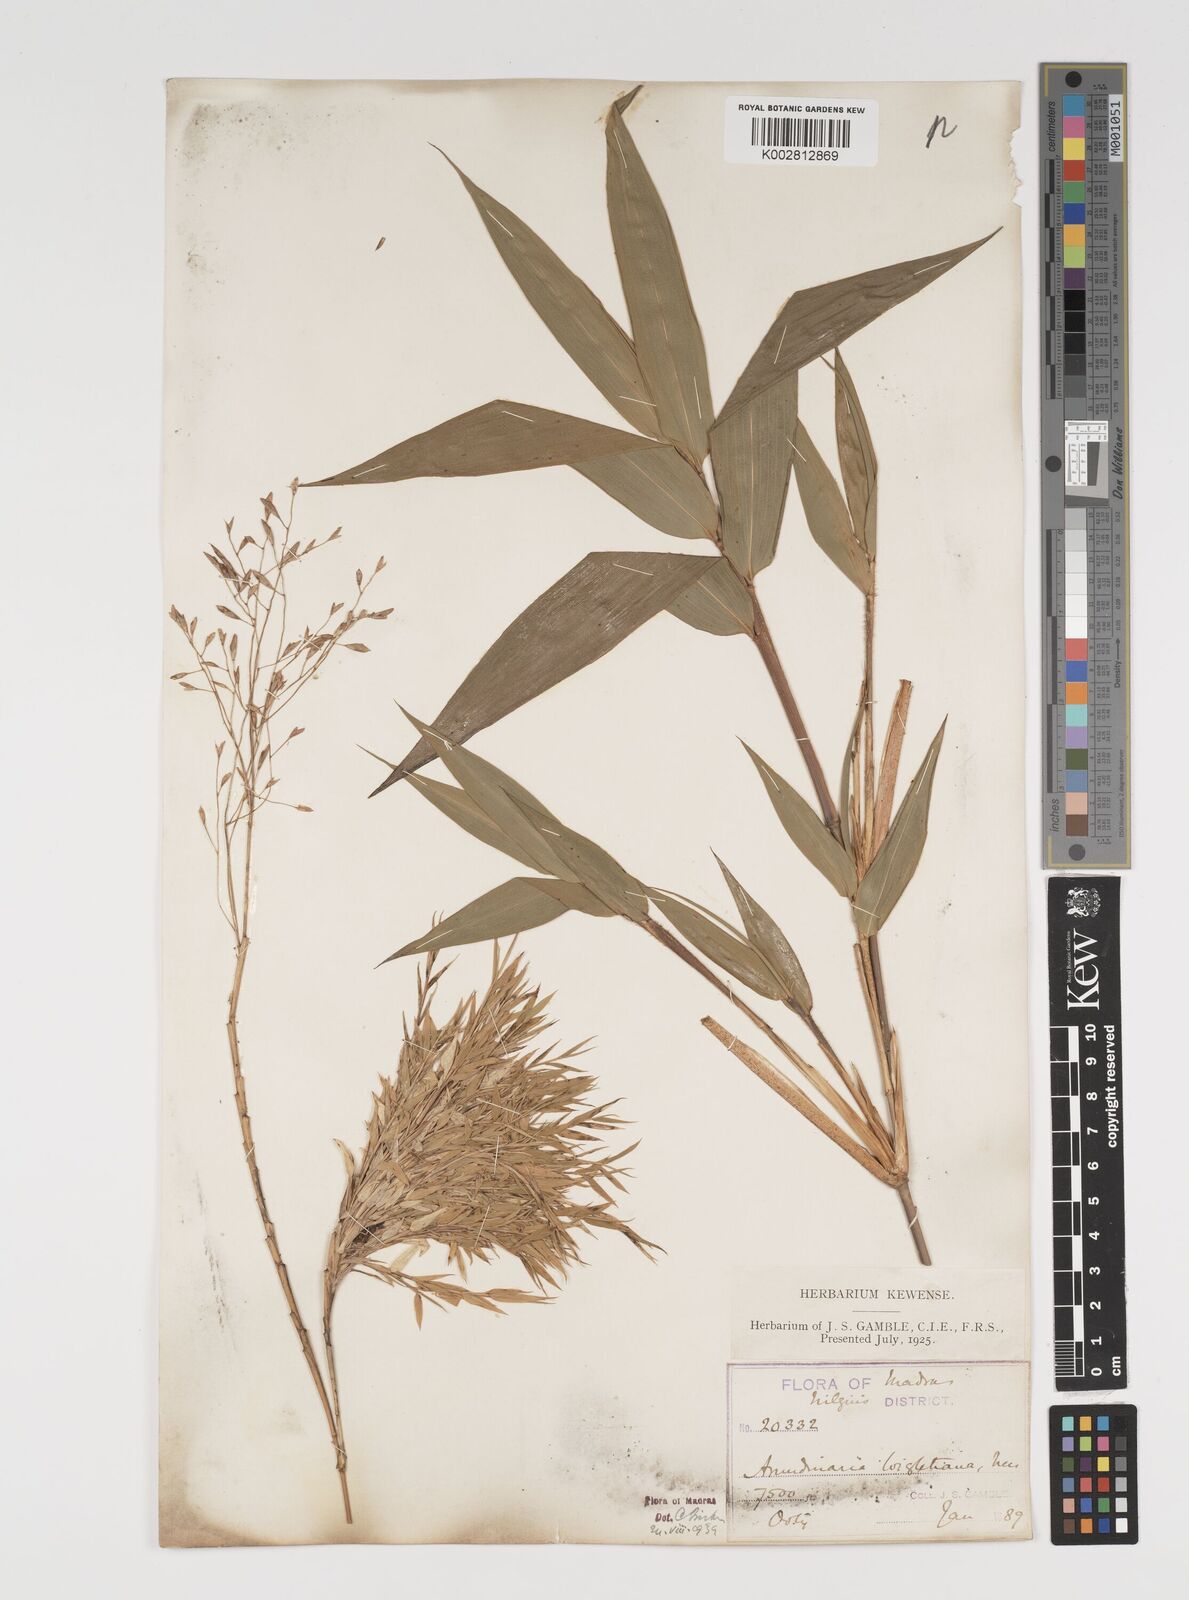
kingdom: Plantae
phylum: Tracheophyta
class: Liliopsida
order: Poales
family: Poaceae
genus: Kuruna
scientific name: Kuruna wightiana
